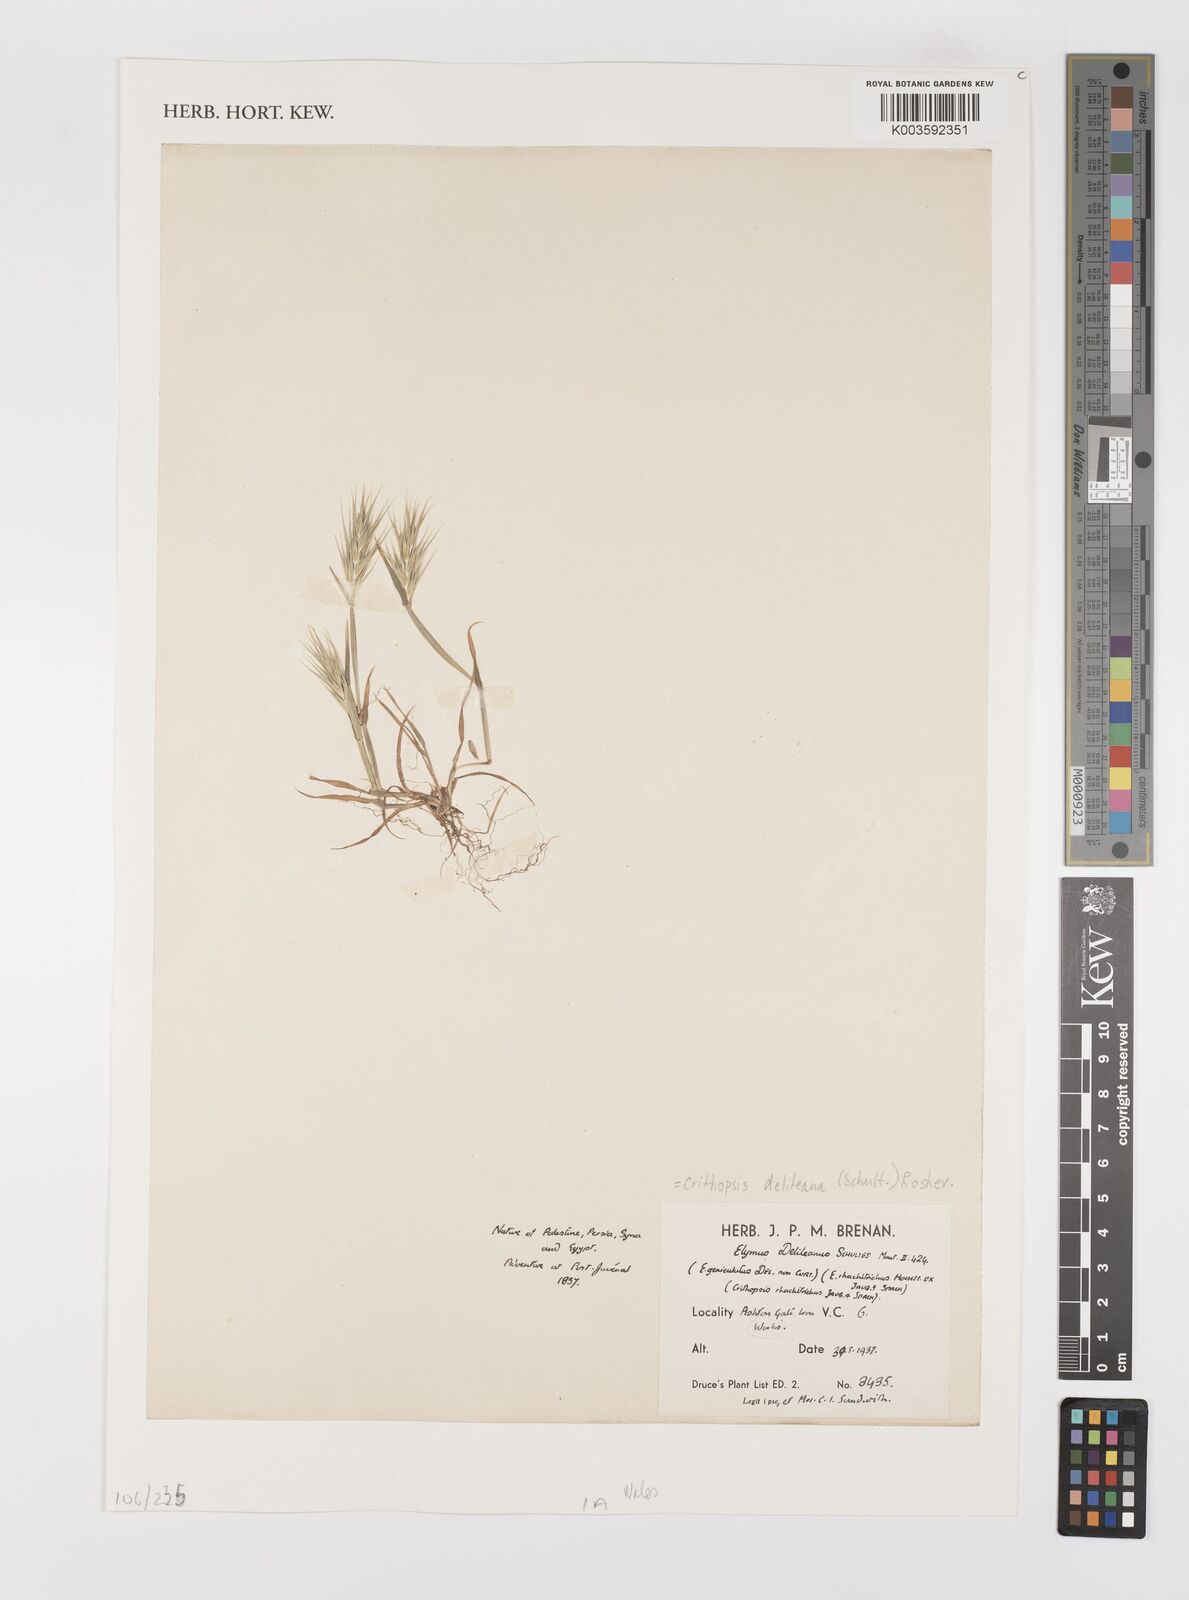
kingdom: Plantae
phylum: Tracheophyta
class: Liliopsida
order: Poales
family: Poaceae
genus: Crithopsis
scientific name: Crithopsis delileana
